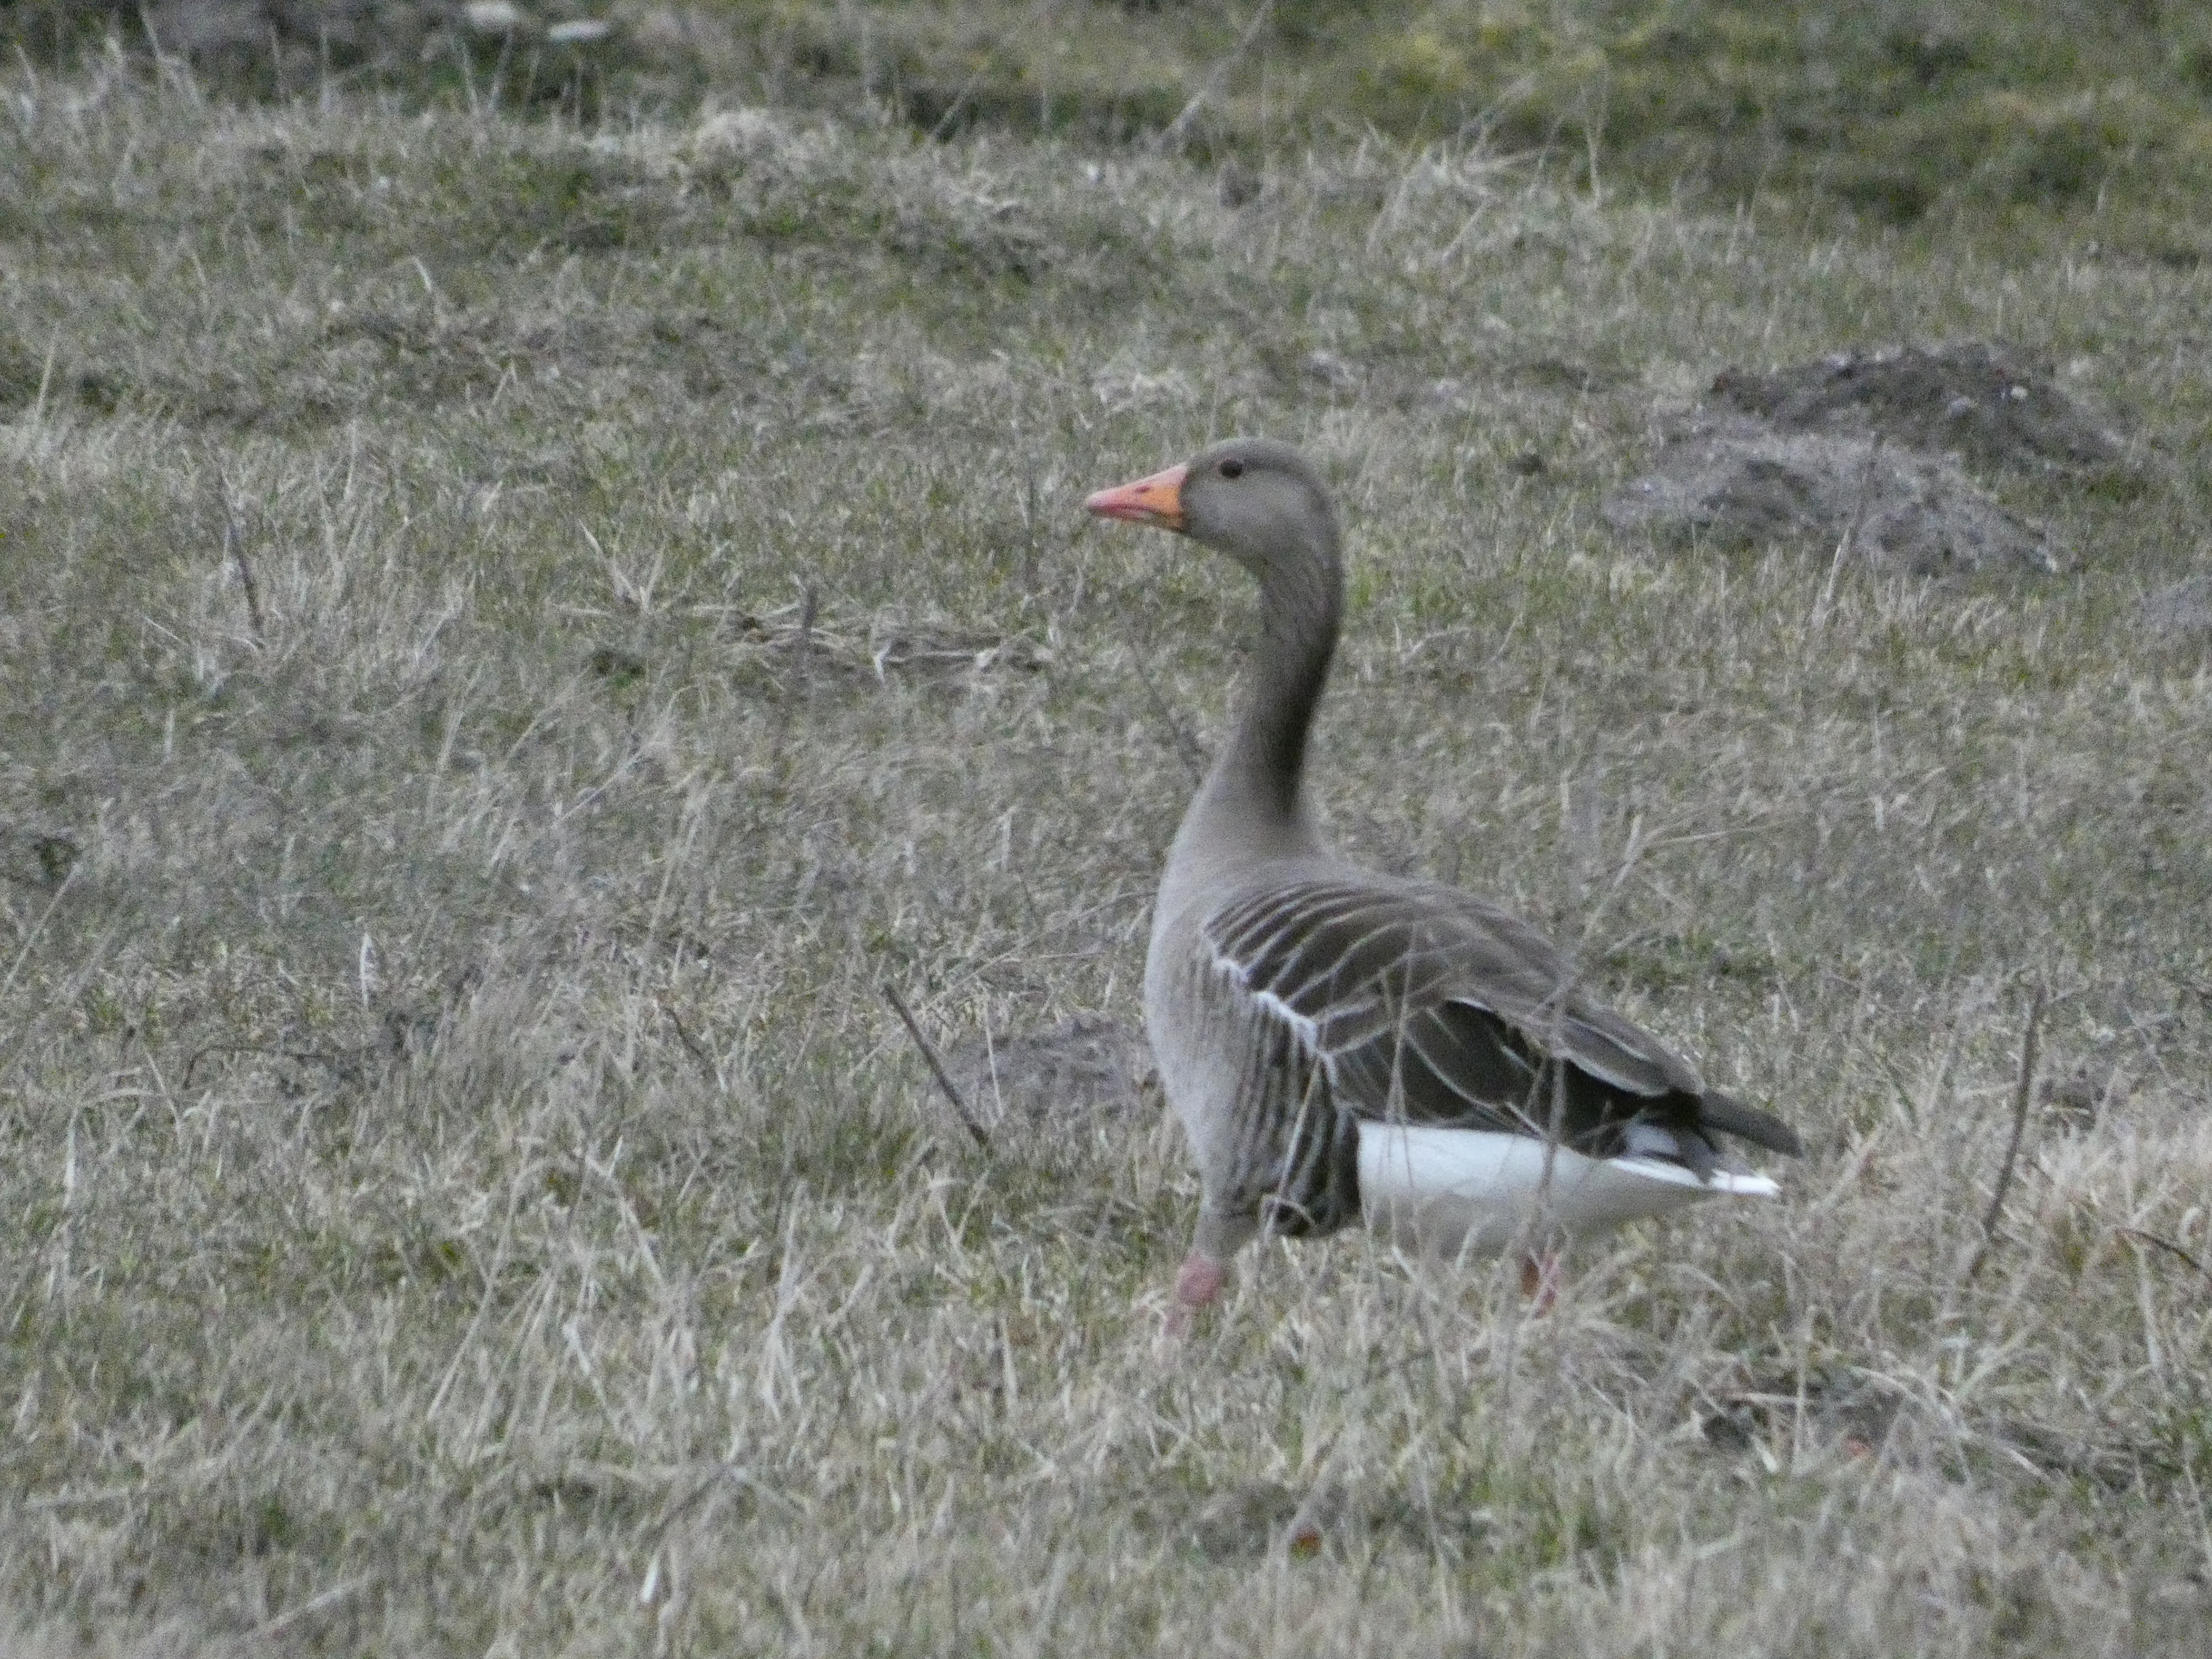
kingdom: Animalia
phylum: Chordata
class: Aves
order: Anseriformes
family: Anatidae
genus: Anser
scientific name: Anser anser
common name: Grågås
